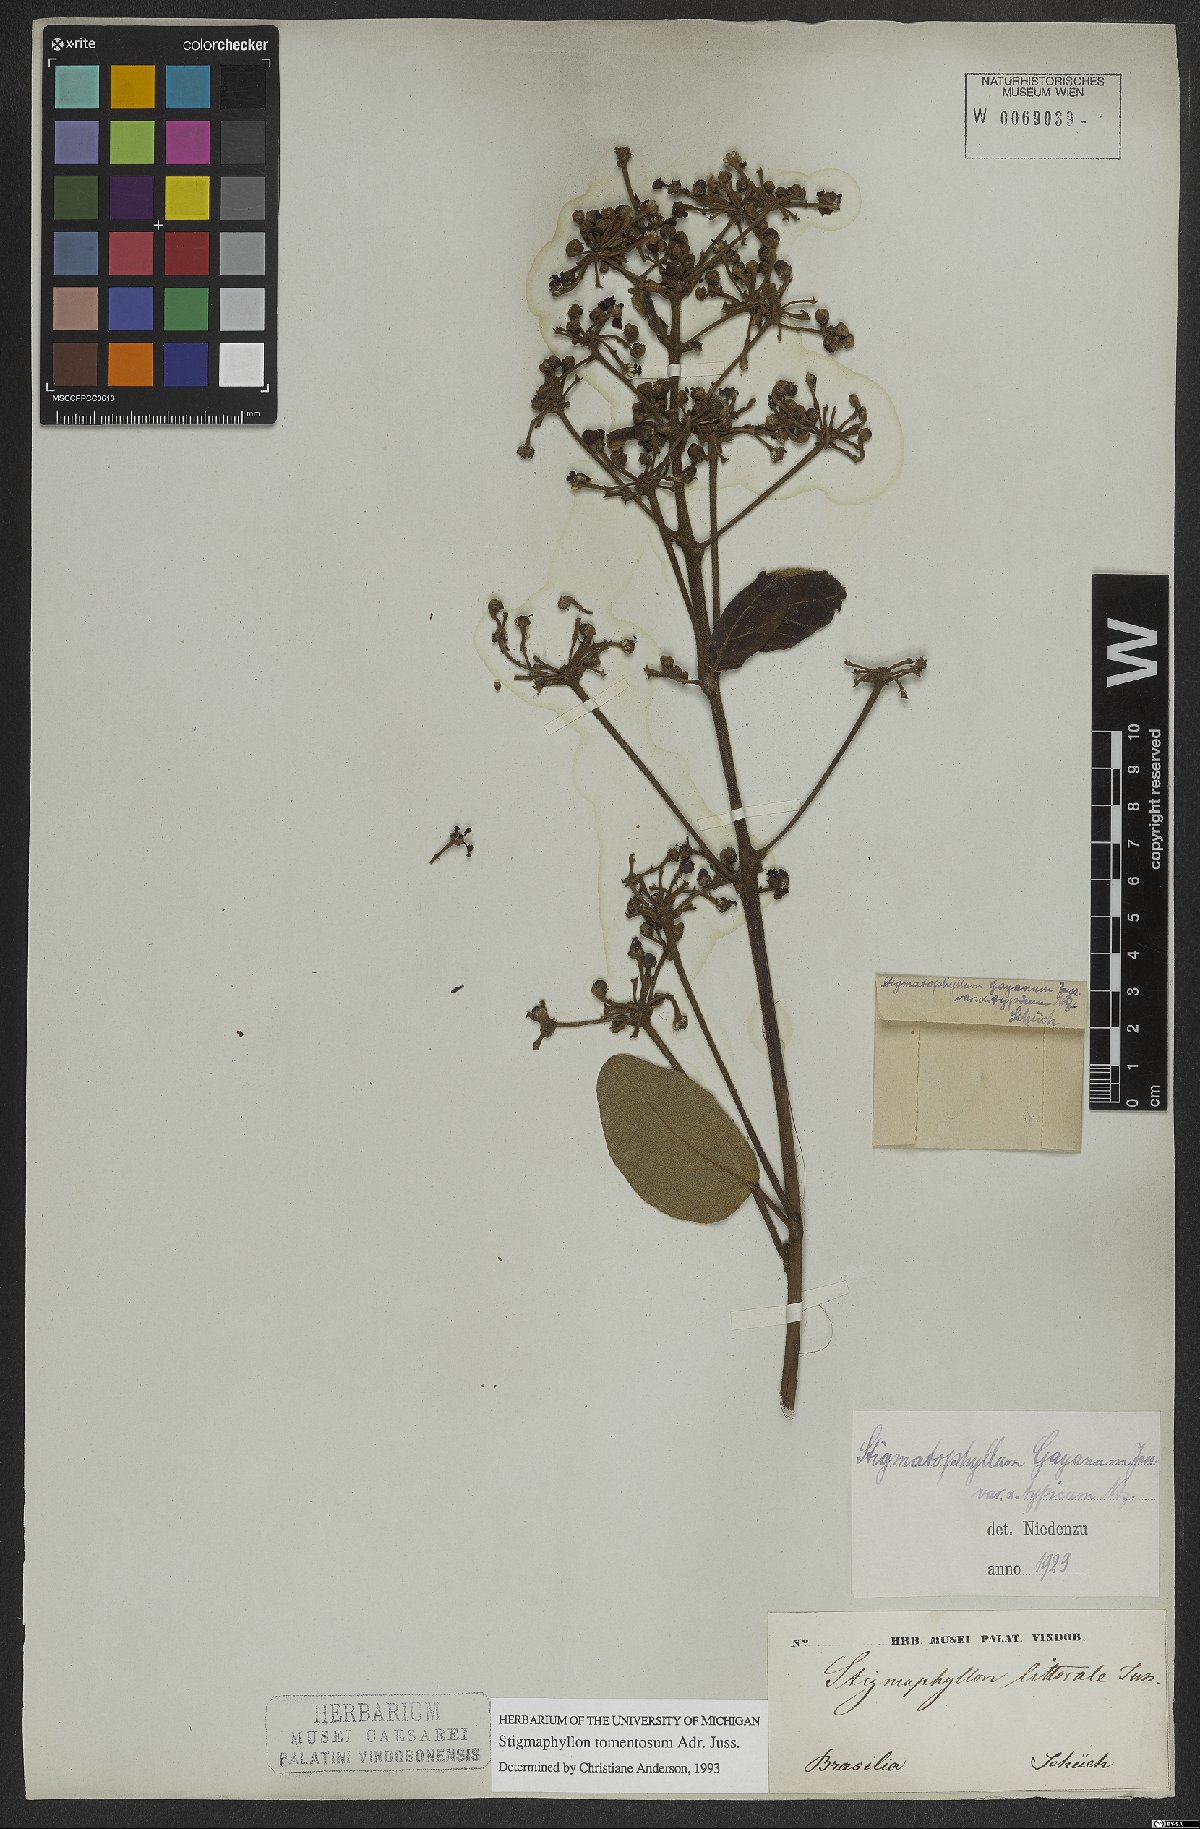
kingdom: Plantae
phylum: Tracheophyta
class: Magnoliopsida
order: Malpighiales
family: Malpighiaceae
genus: Stigmaphyllon
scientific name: Stigmaphyllon tomentosum
